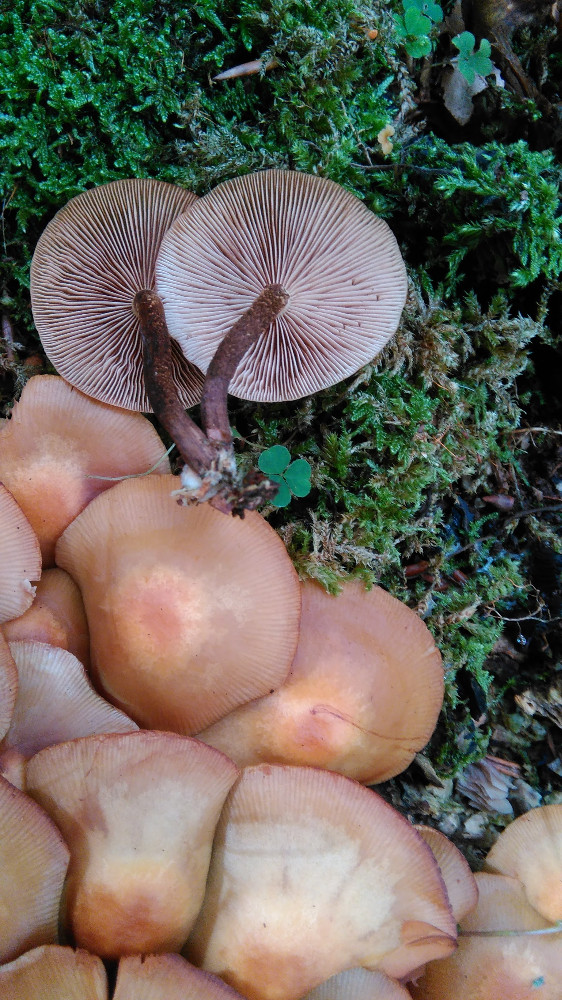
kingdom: Fungi
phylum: Basidiomycota
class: Agaricomycetes
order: Agaricales
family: Strophariaceae
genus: Kuehneromyces
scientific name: Kuehneromyces mutabilis
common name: foranderlig skælhat
